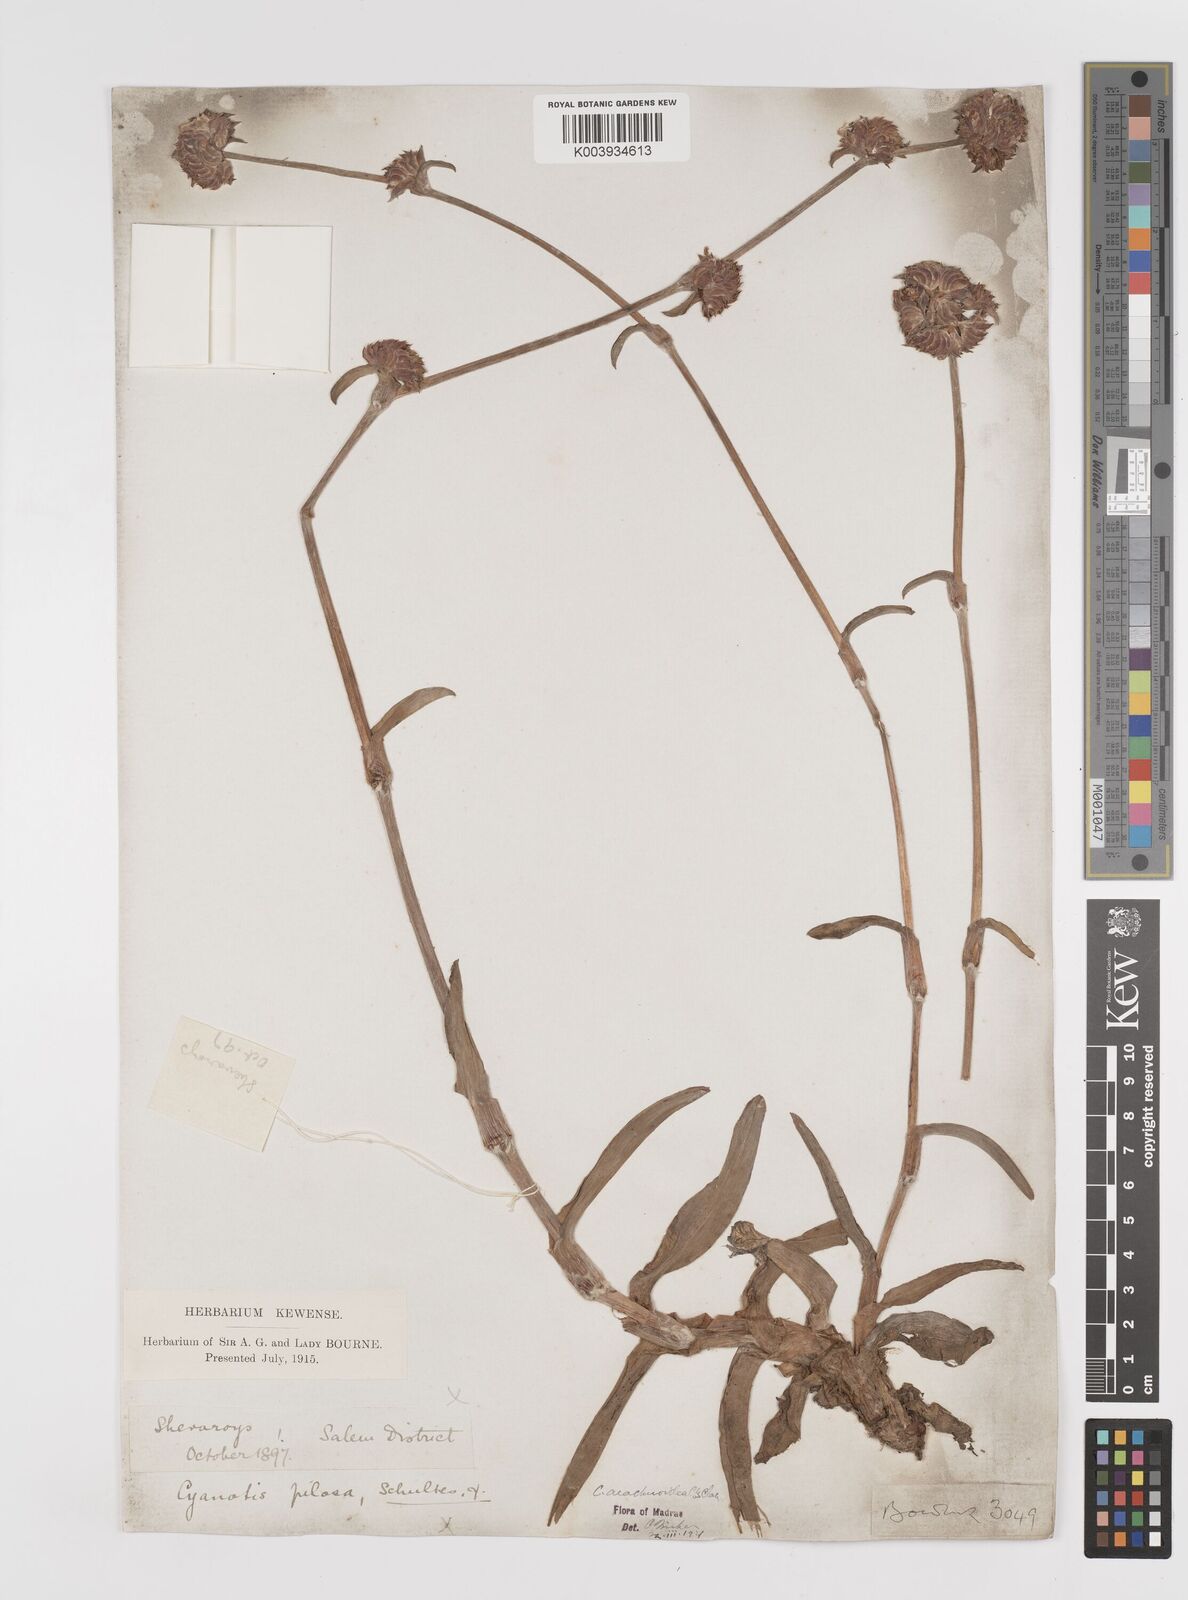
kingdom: Plantae
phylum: Tracheophyta
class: Liliopsida
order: Commelinales
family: Commelinaceae
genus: Cyanotis
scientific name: Cyanotis arachnoidea
